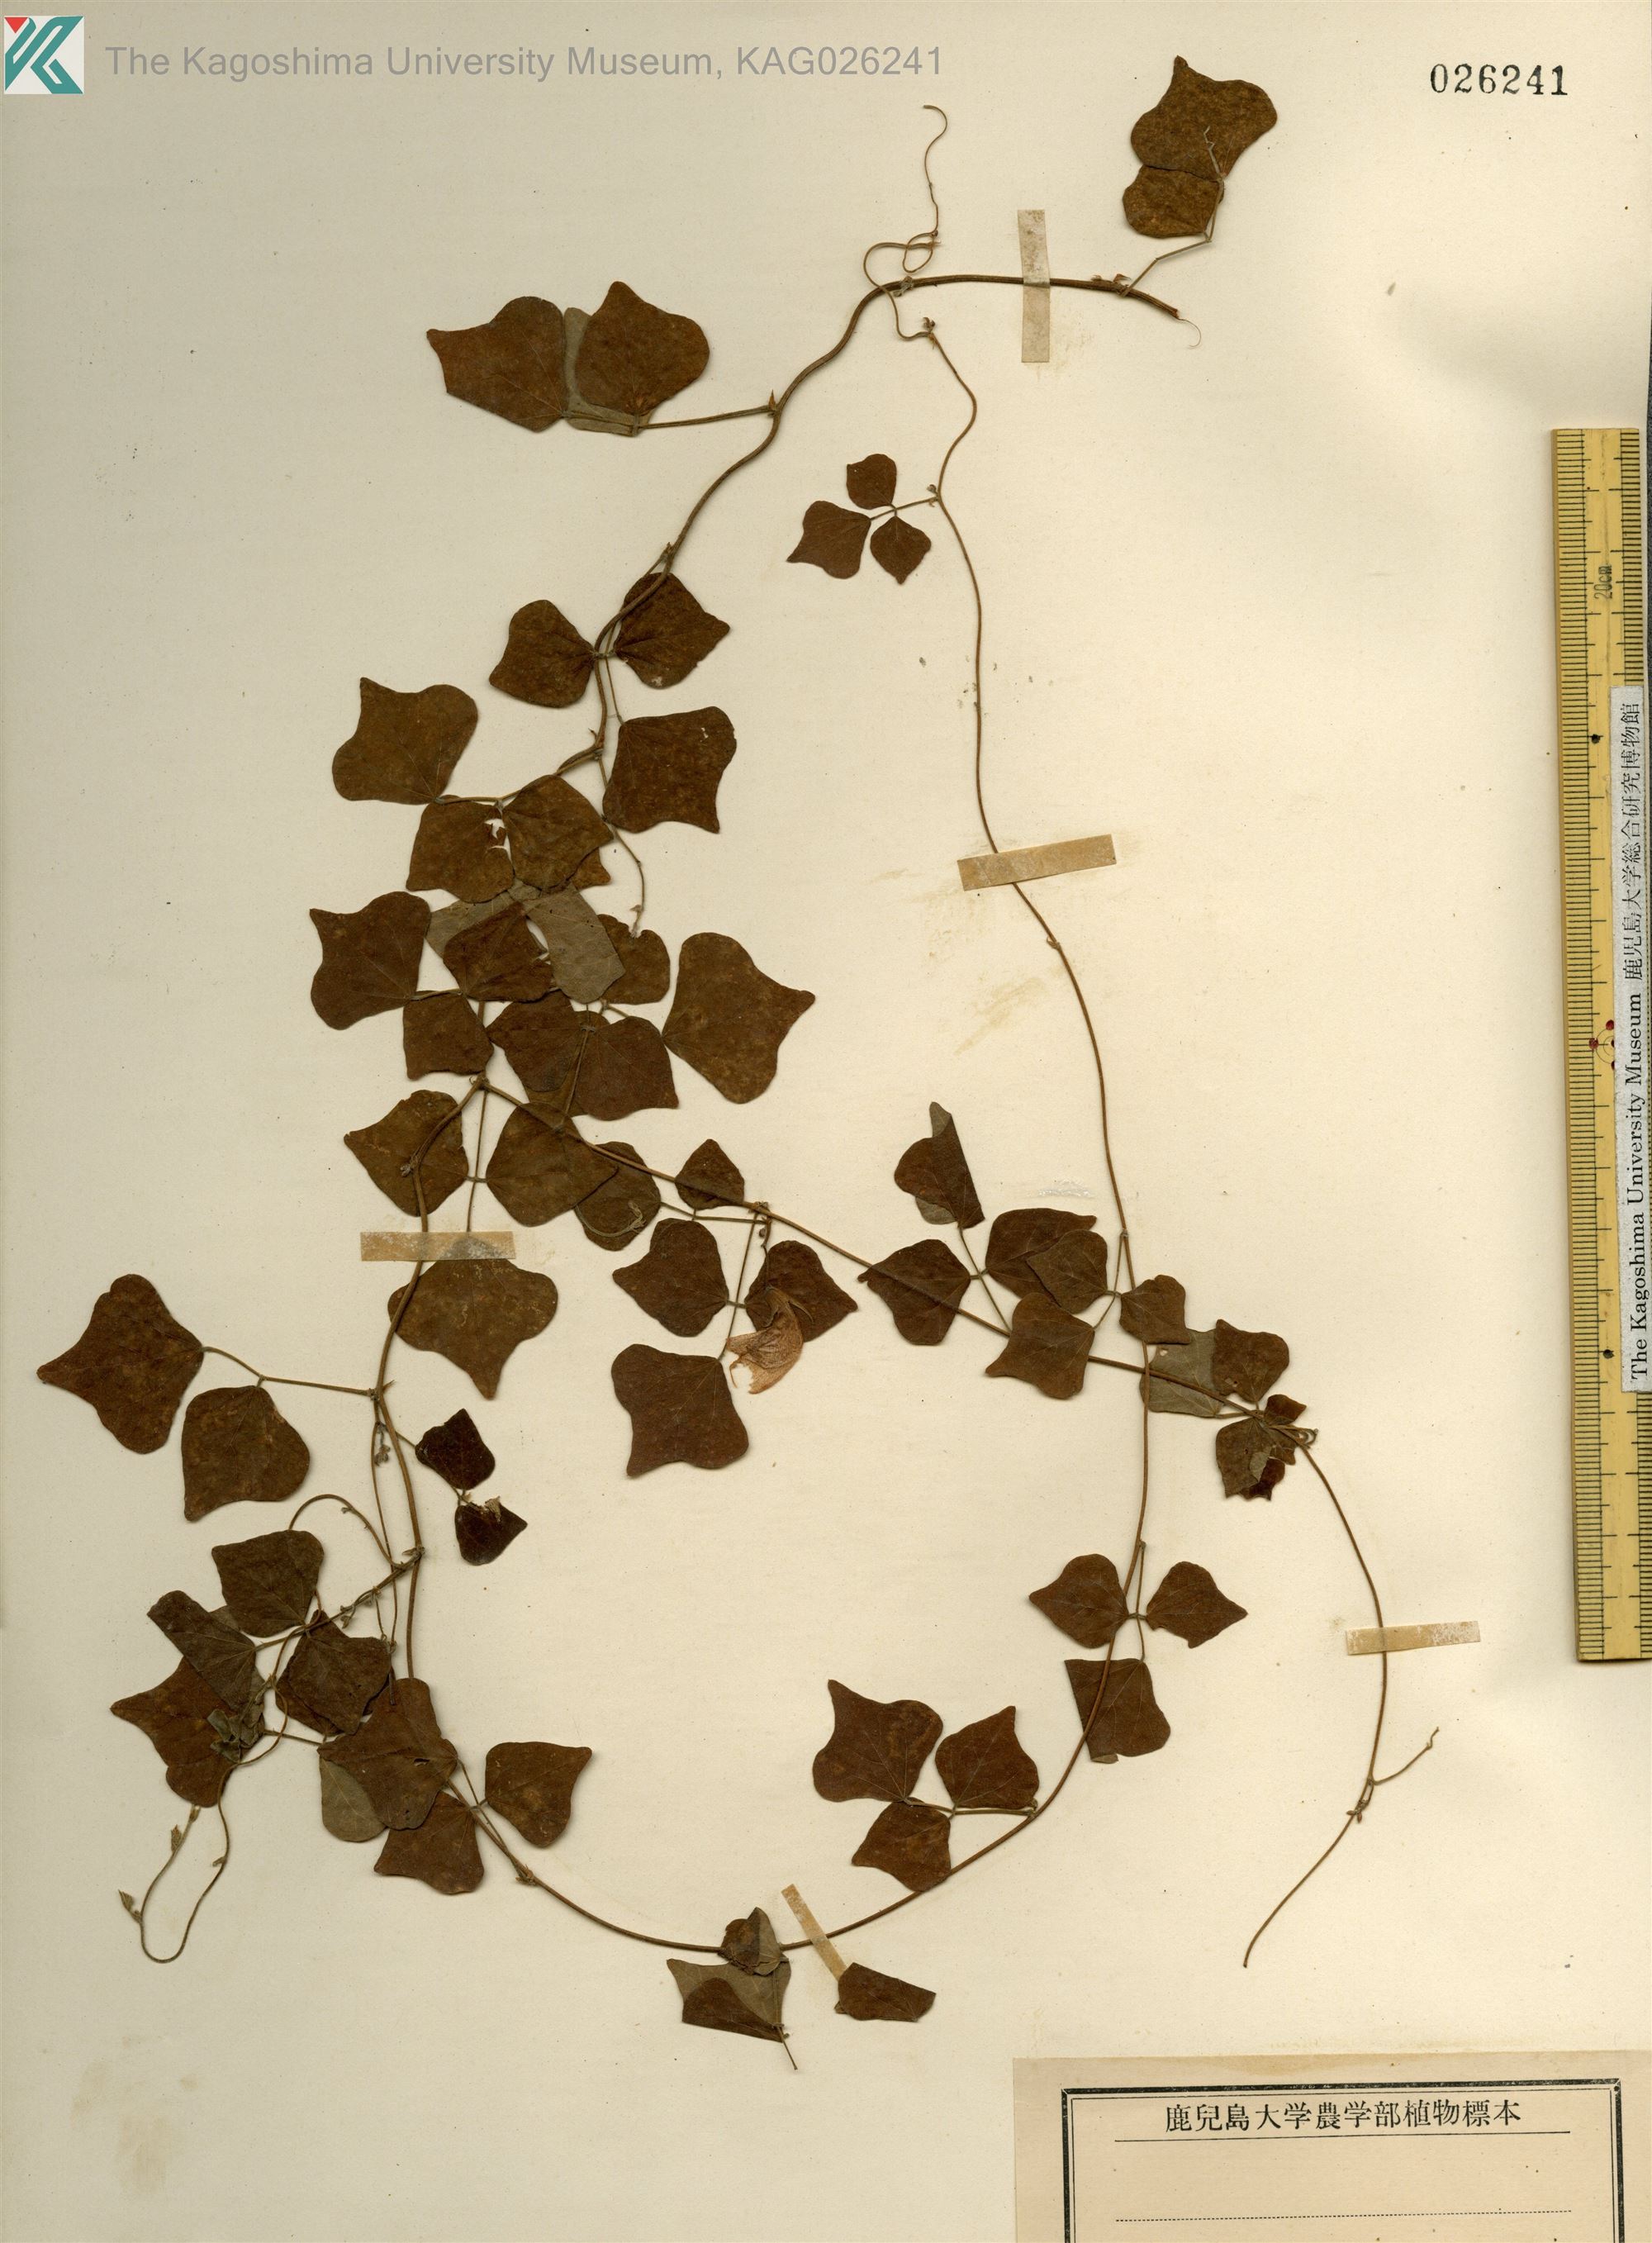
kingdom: Plantae
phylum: Tracheophyta
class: Magnoliopsida
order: Fabales
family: Fabaceae
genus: Dunbaria
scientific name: Dunbaria villosa
